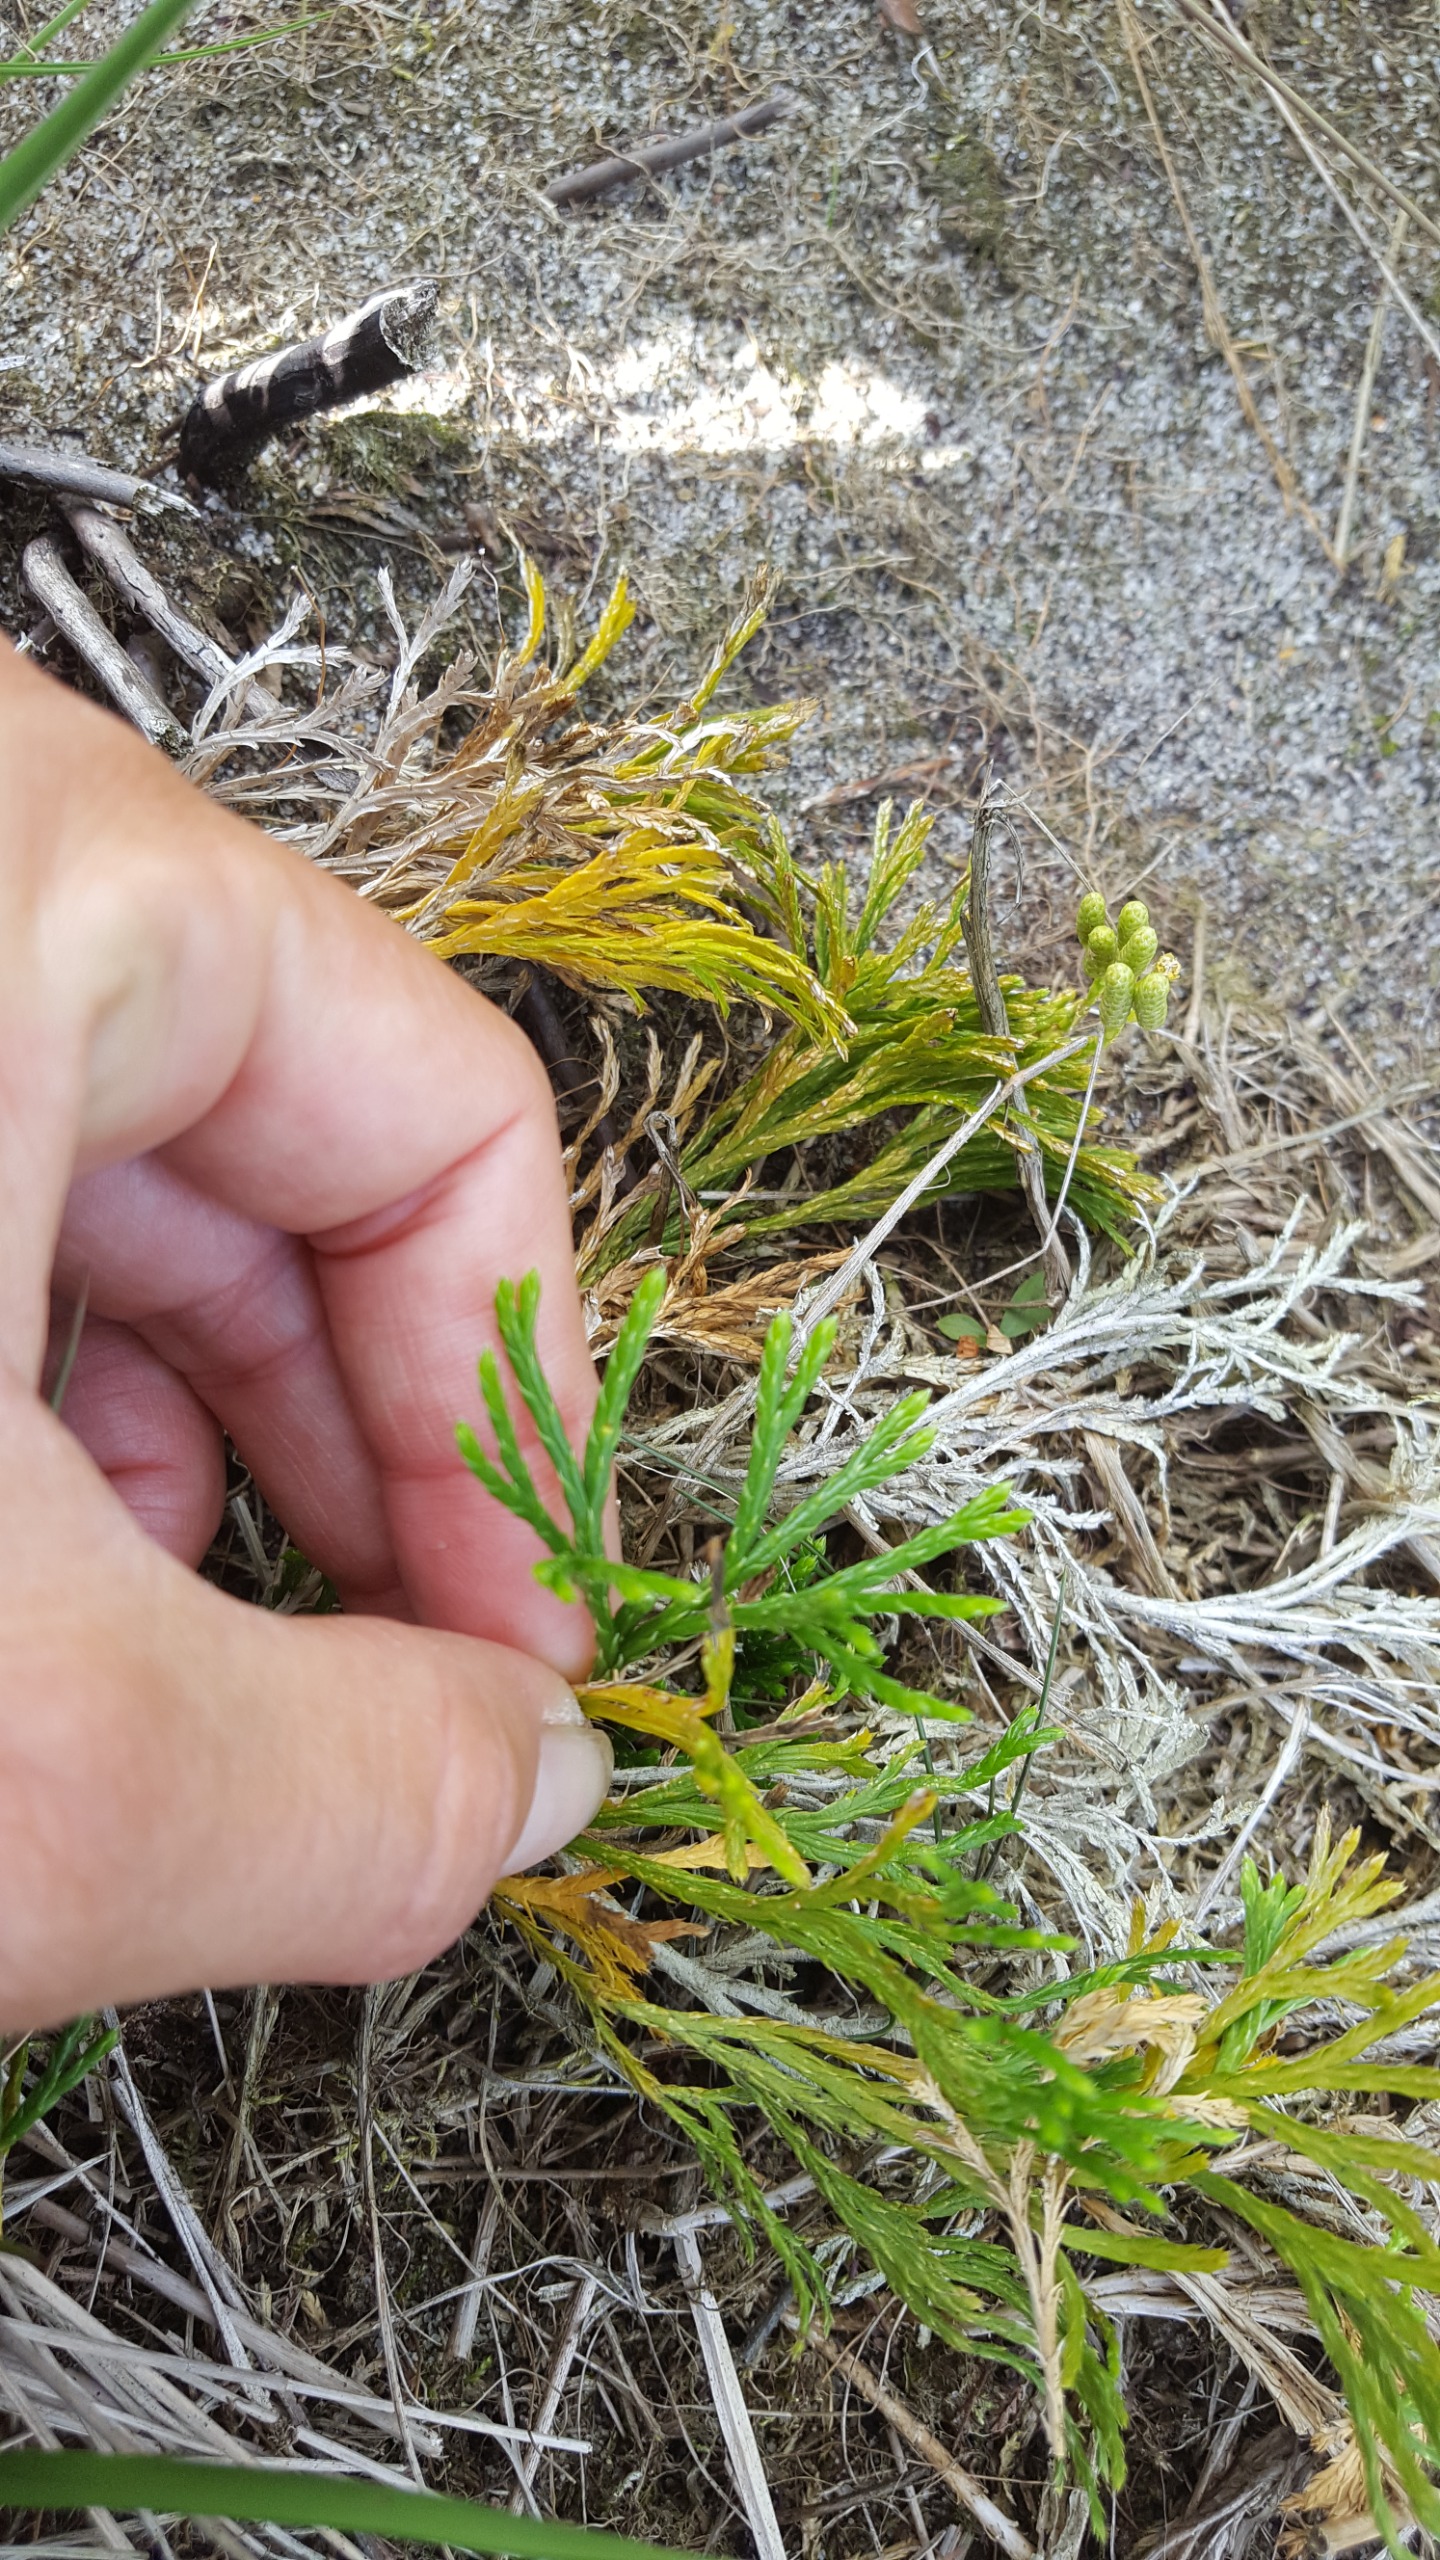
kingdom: Plantae
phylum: Tracheophyta
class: Lycopodiopsida
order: Lycopodiales
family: Lycopodiaceae
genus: Diphasiastrum
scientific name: Diphasiastrum tristachyum
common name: Flad ulvefod × cypres-ulvefod
